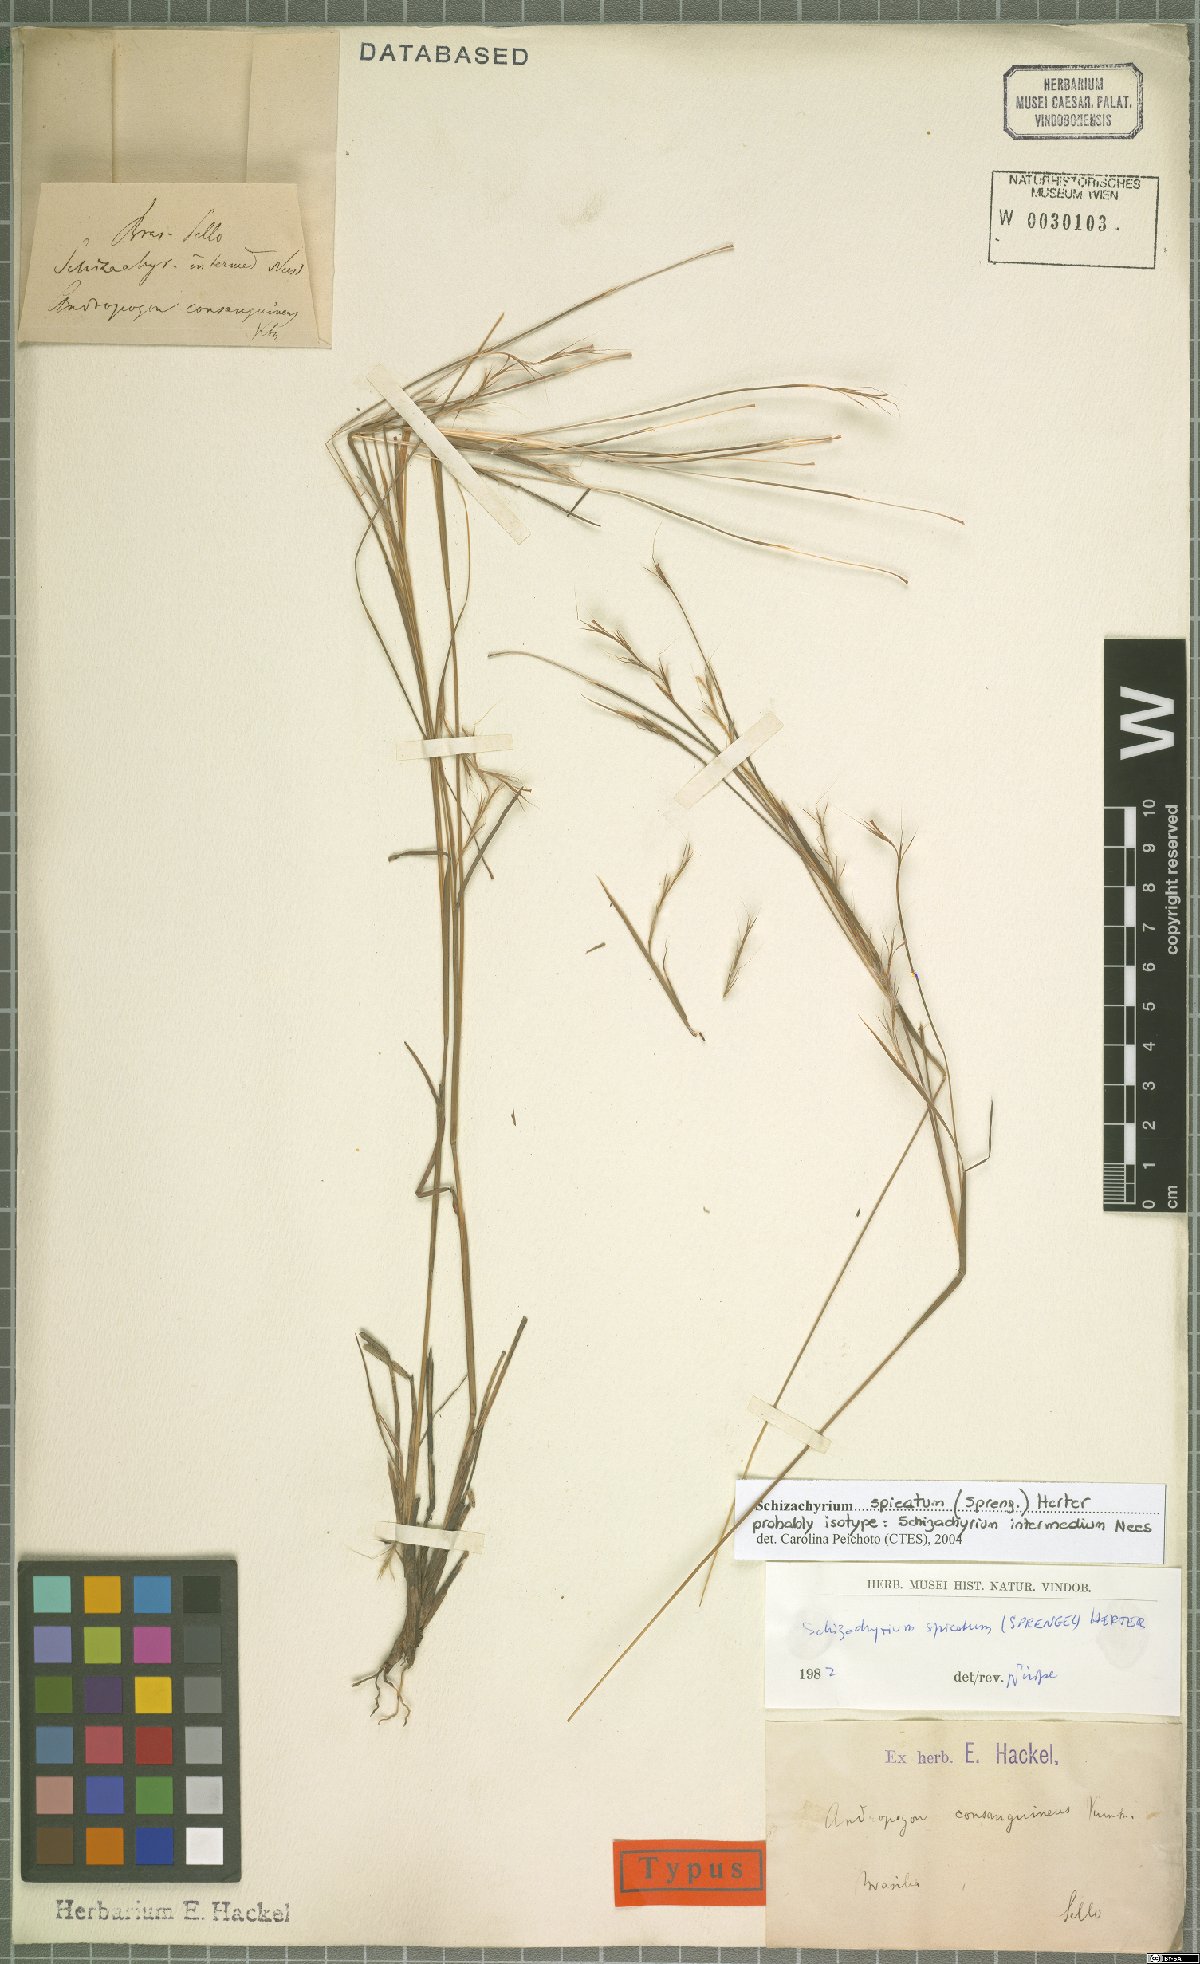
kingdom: Plantae
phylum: Tracheophyta
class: Liliopsida
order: Poales
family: Poaceae
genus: Schizachyrium
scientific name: Schizachyrium spicatum
